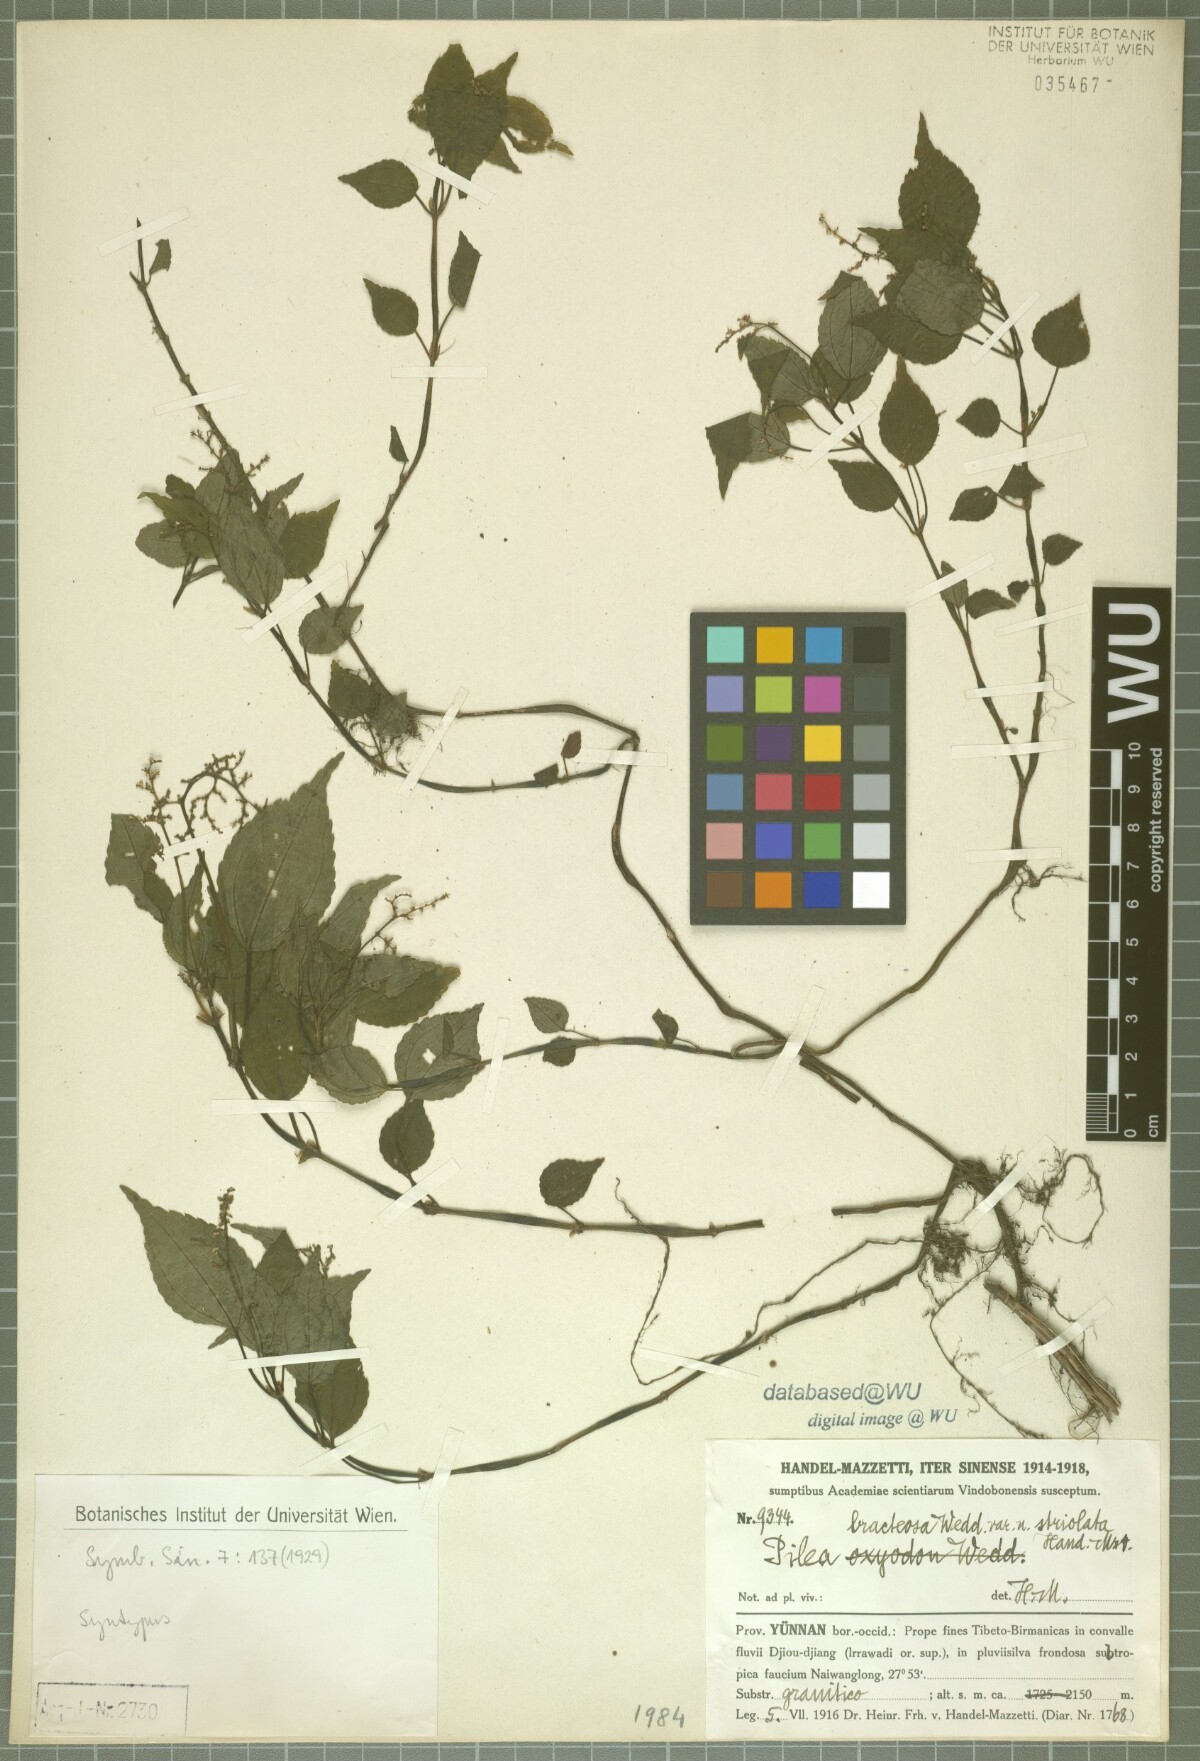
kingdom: Plantae
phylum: Tracheophyta
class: Magnoliopsida
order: Rosales
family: Urticaceae
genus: Pilea
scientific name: Pilea bracteosa
